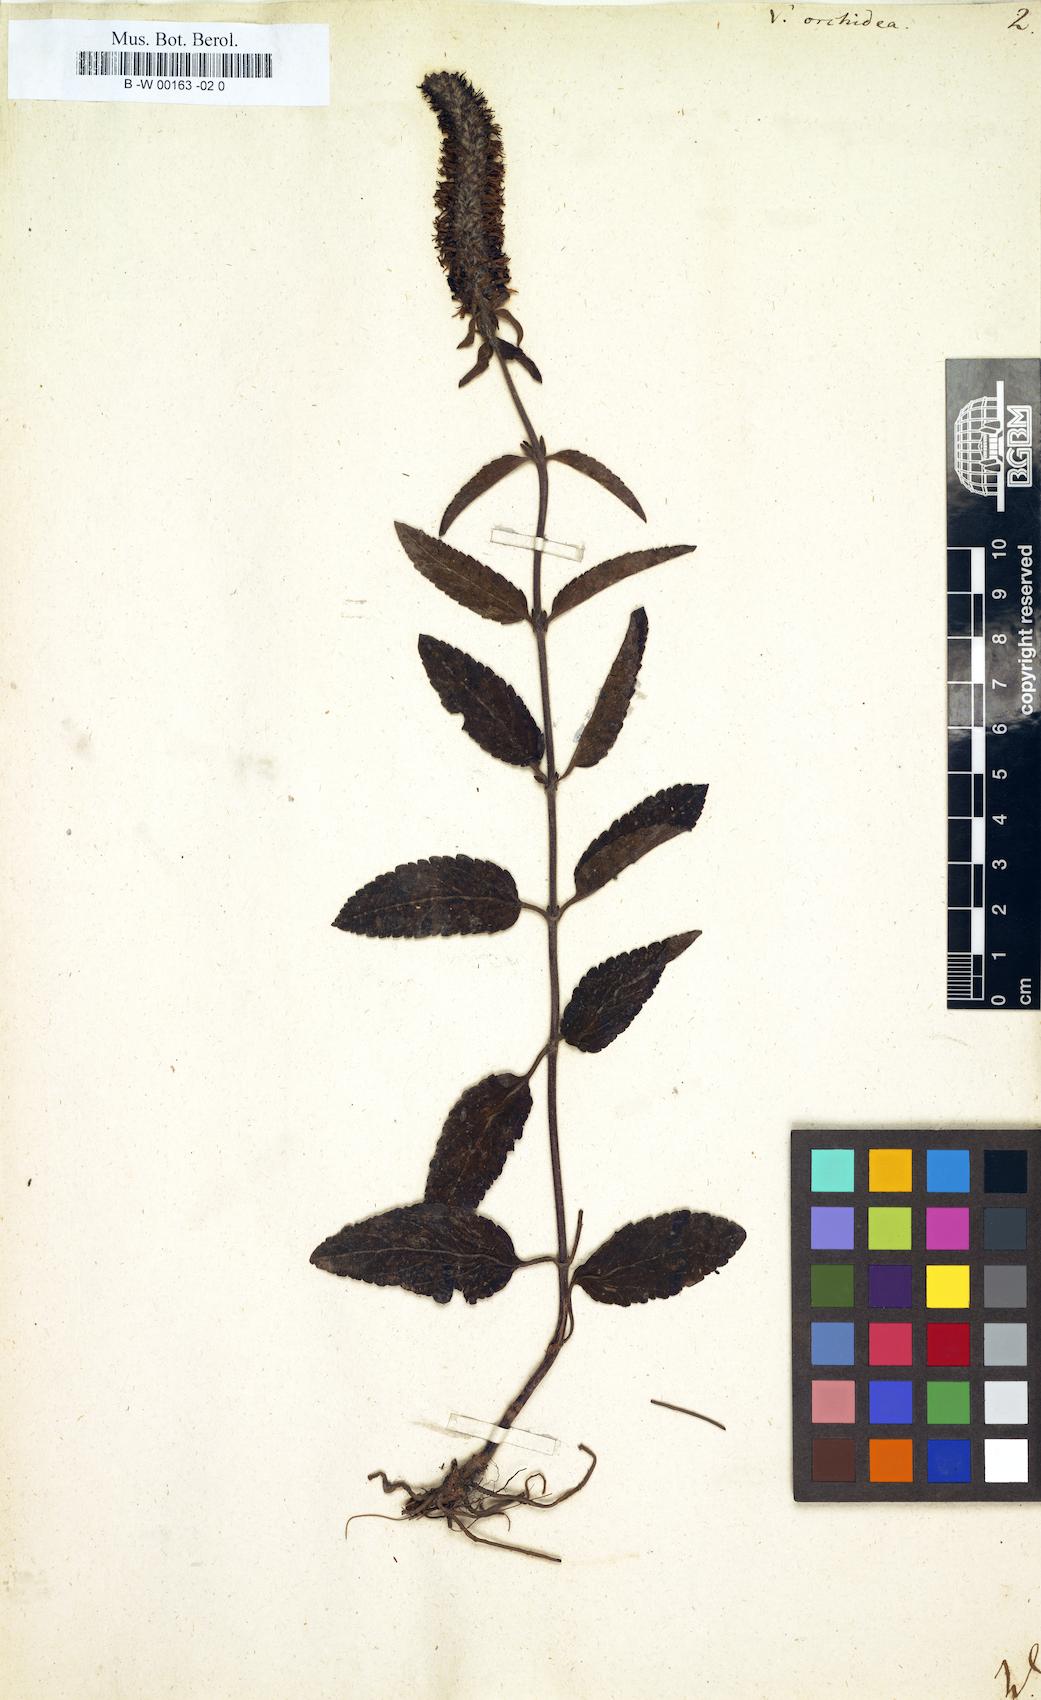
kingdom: Plantae
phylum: Tracheophyta
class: Magnoliopsida
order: Lamiales
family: Plantaginaceae
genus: Veronica
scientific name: Veronica orchidea
